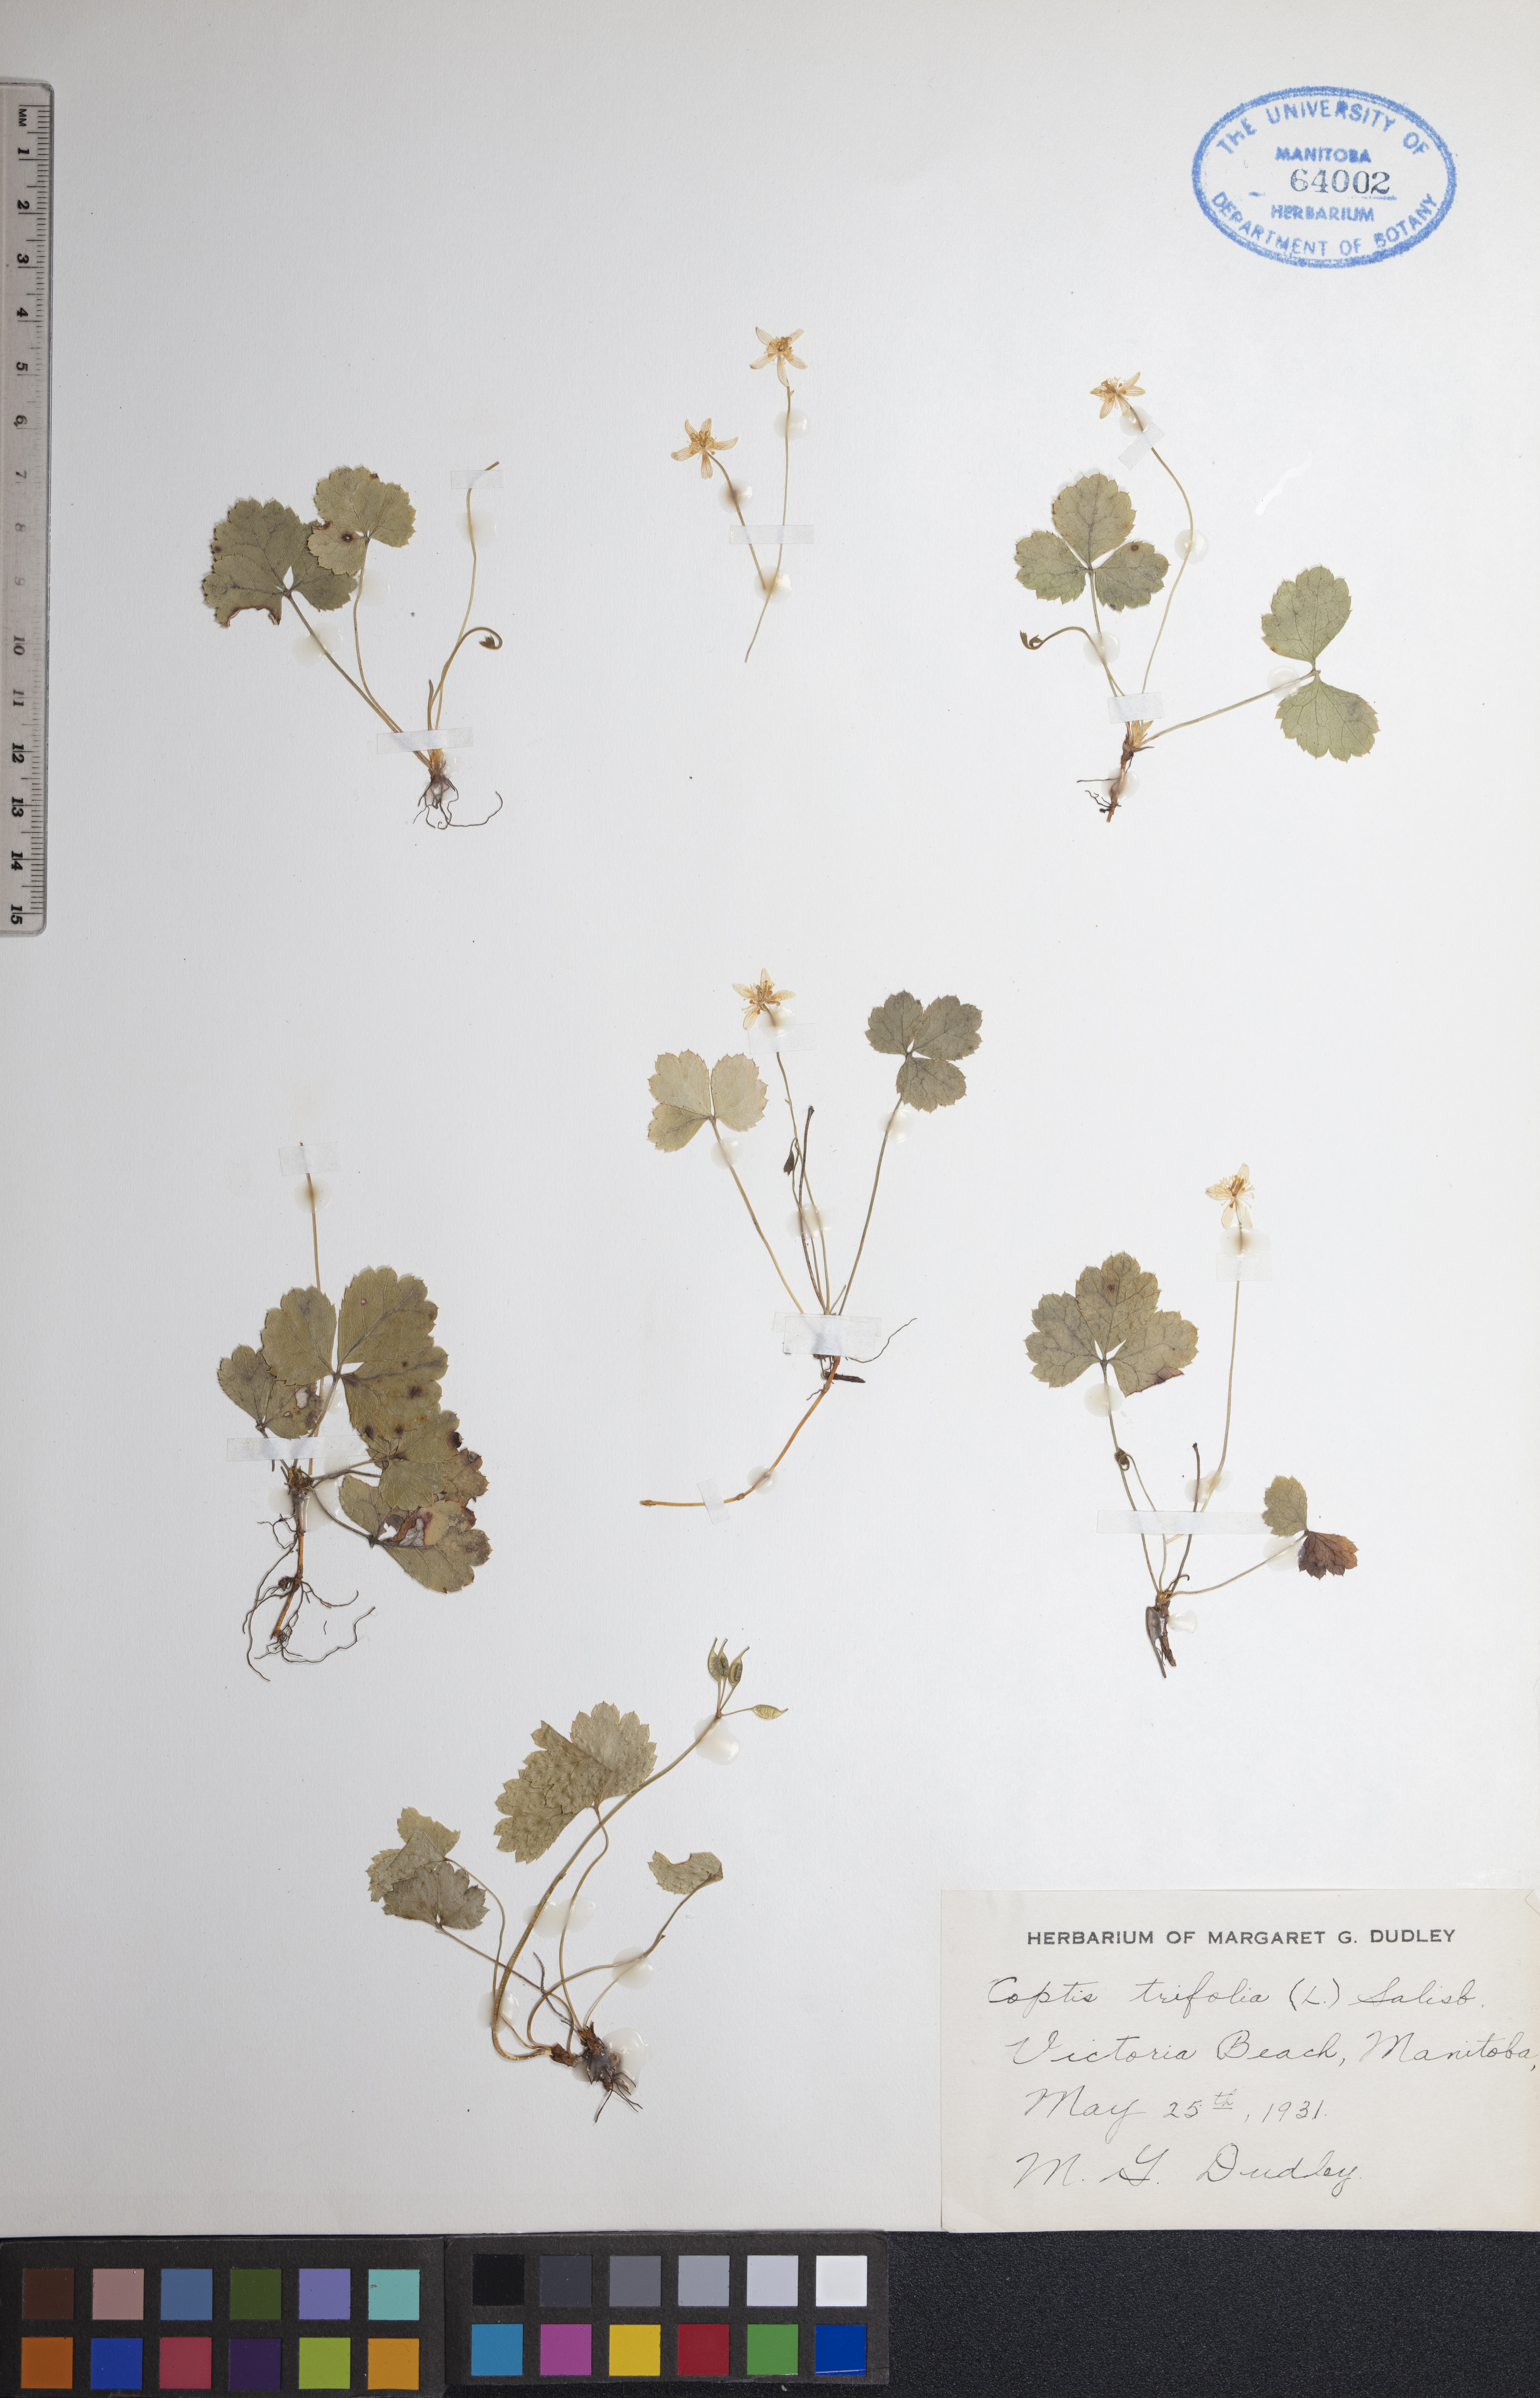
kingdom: Plantae
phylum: Tracheophyta
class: Magnoliopsida
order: Ranunculales
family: Ranunculaceae
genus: Coptis
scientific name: Coptis trifolia
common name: Canker-root
